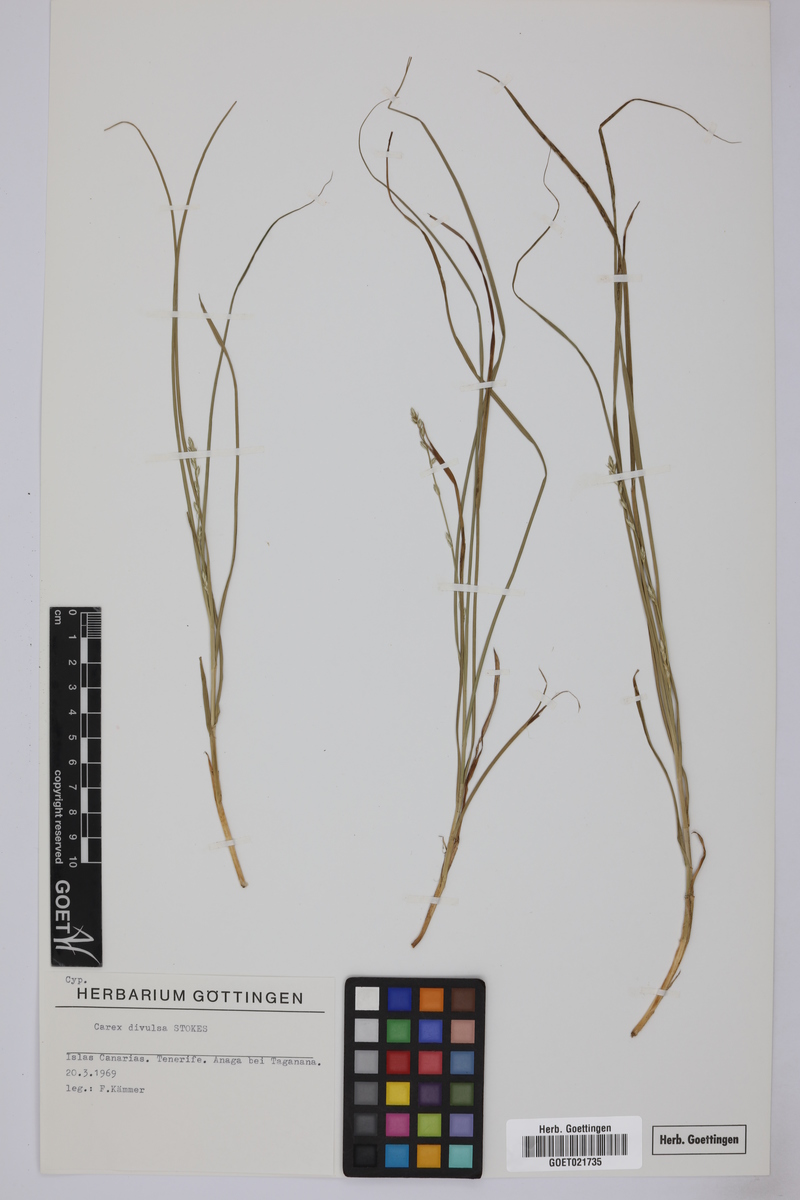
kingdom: Plantae
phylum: Tracheophyta
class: Liliopsida
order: Poales
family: Cyperaceae
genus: Carex
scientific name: Carex divulsa
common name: Grassland sedge
